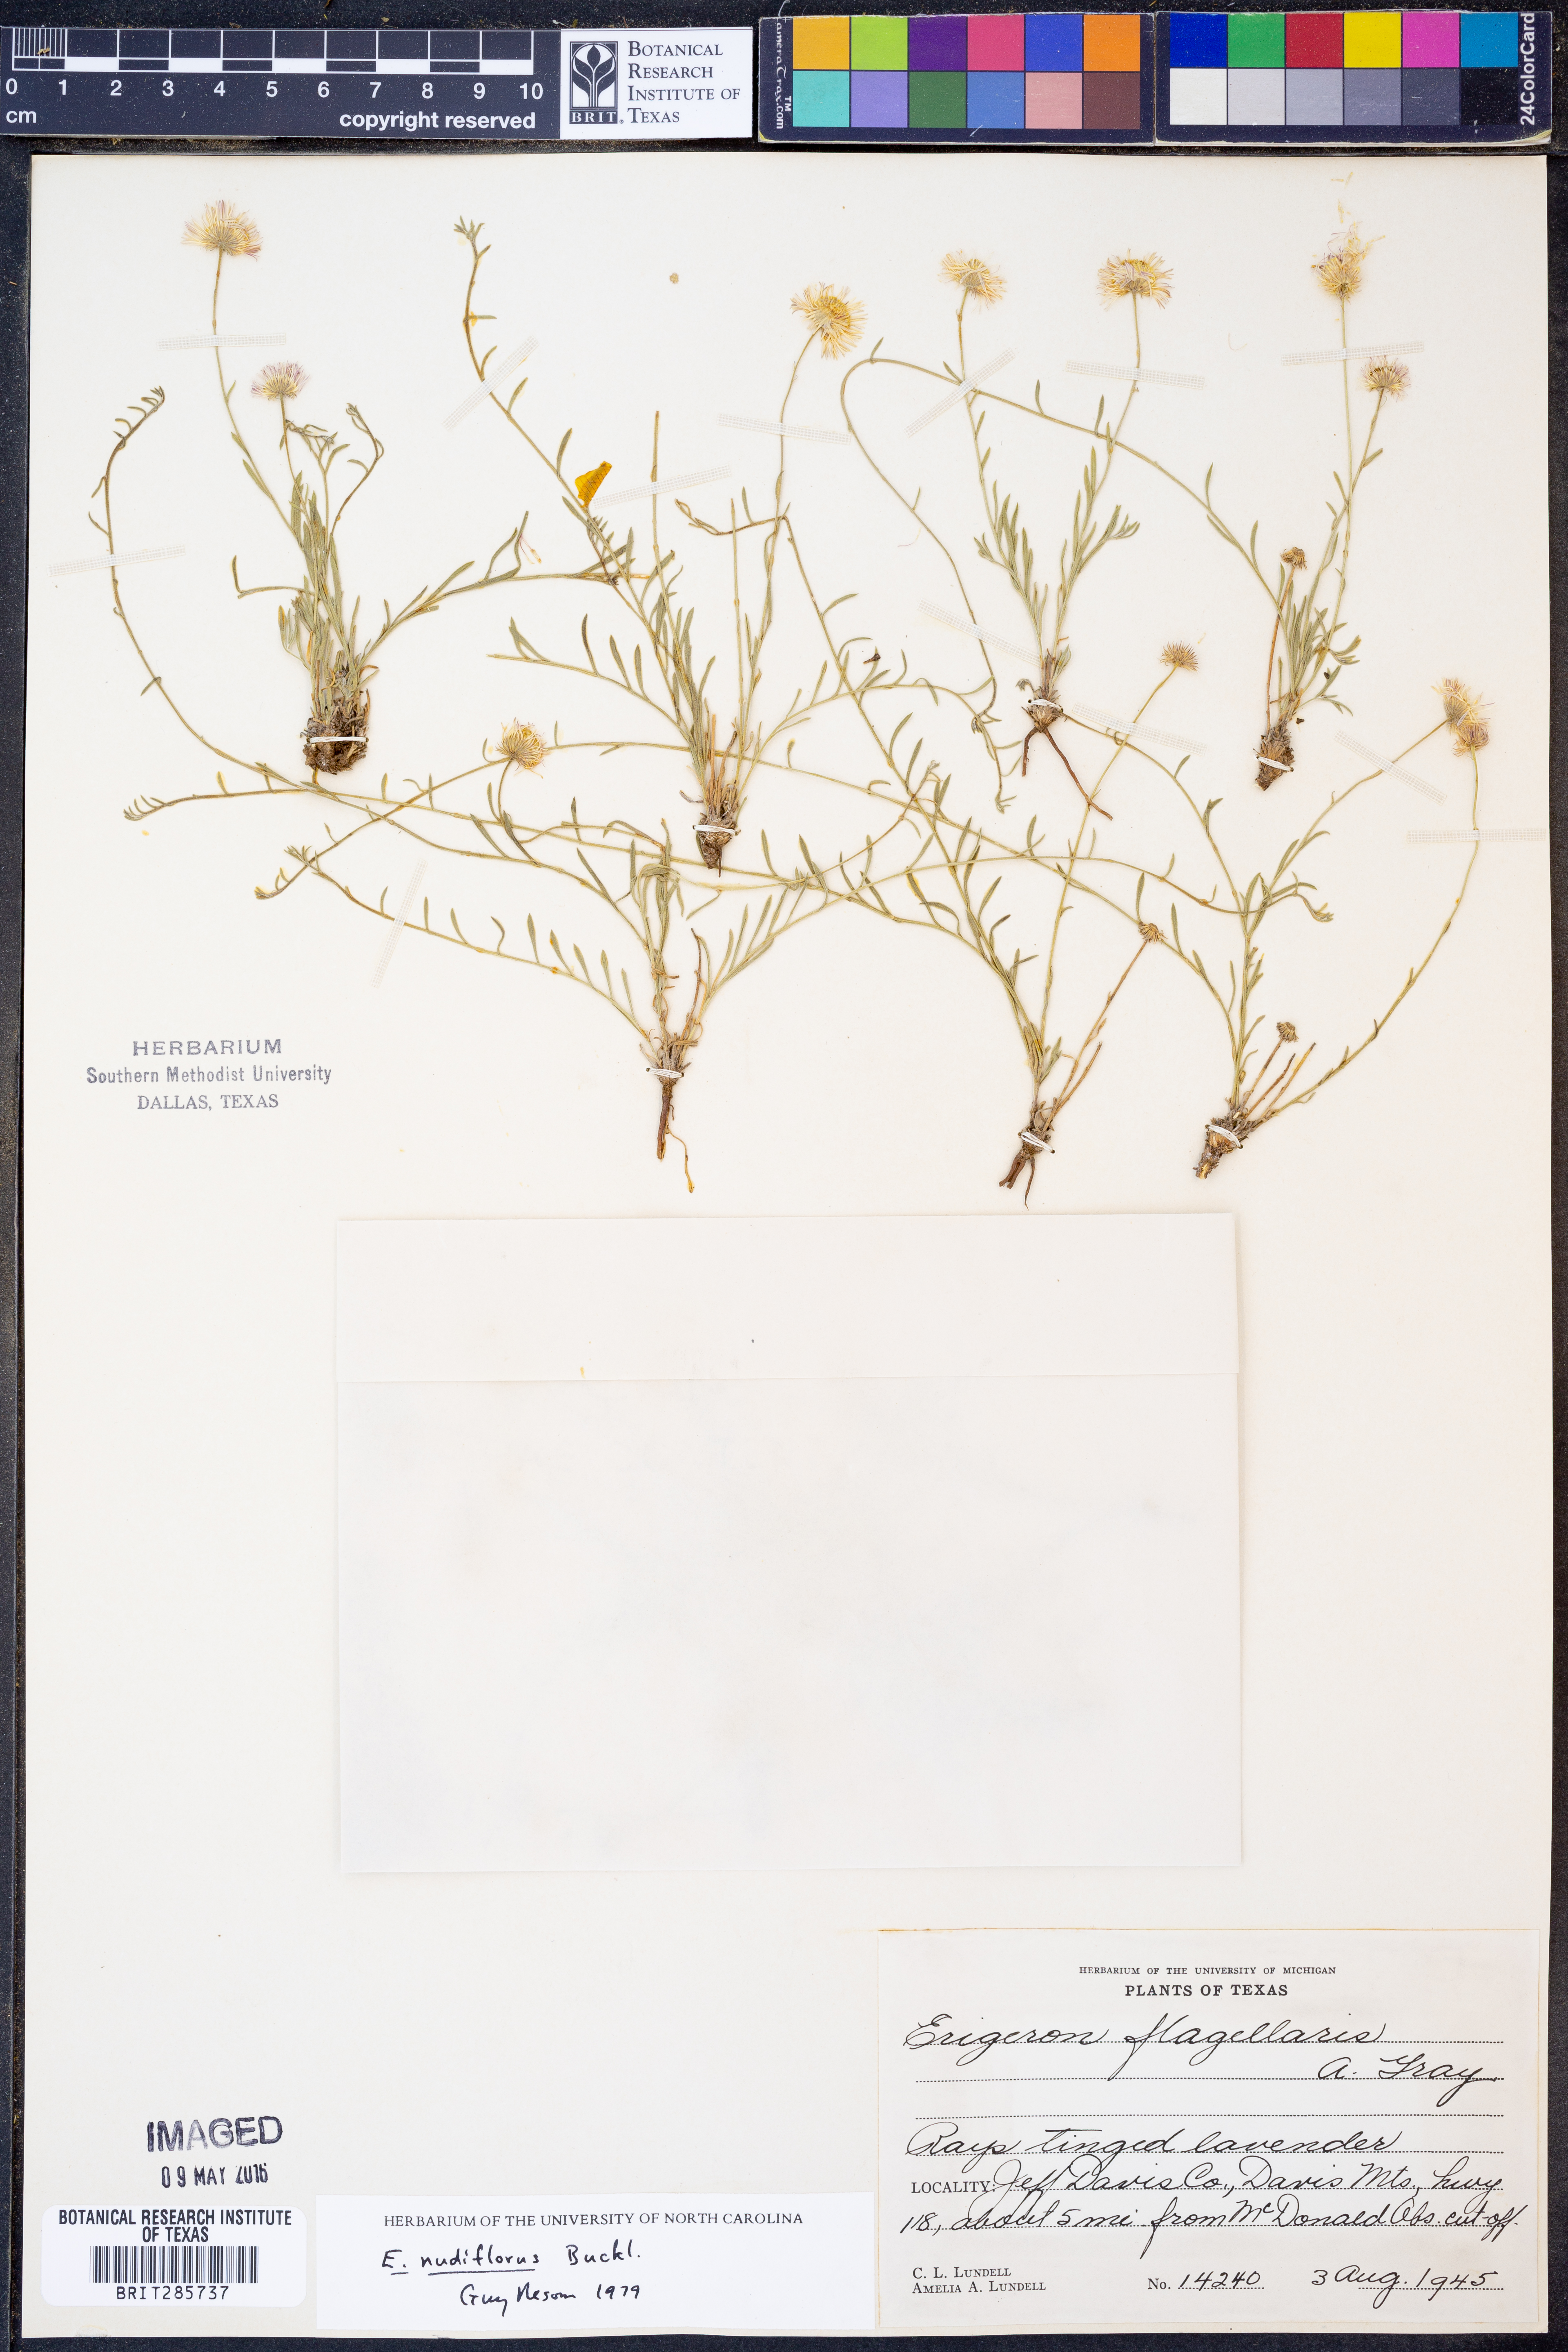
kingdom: Plantae
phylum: Tracheophyta
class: Magnoliopsida
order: Asterales
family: Asteraceae
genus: Erigeron
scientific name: Erigeron flagellaris
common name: Running fleabane
